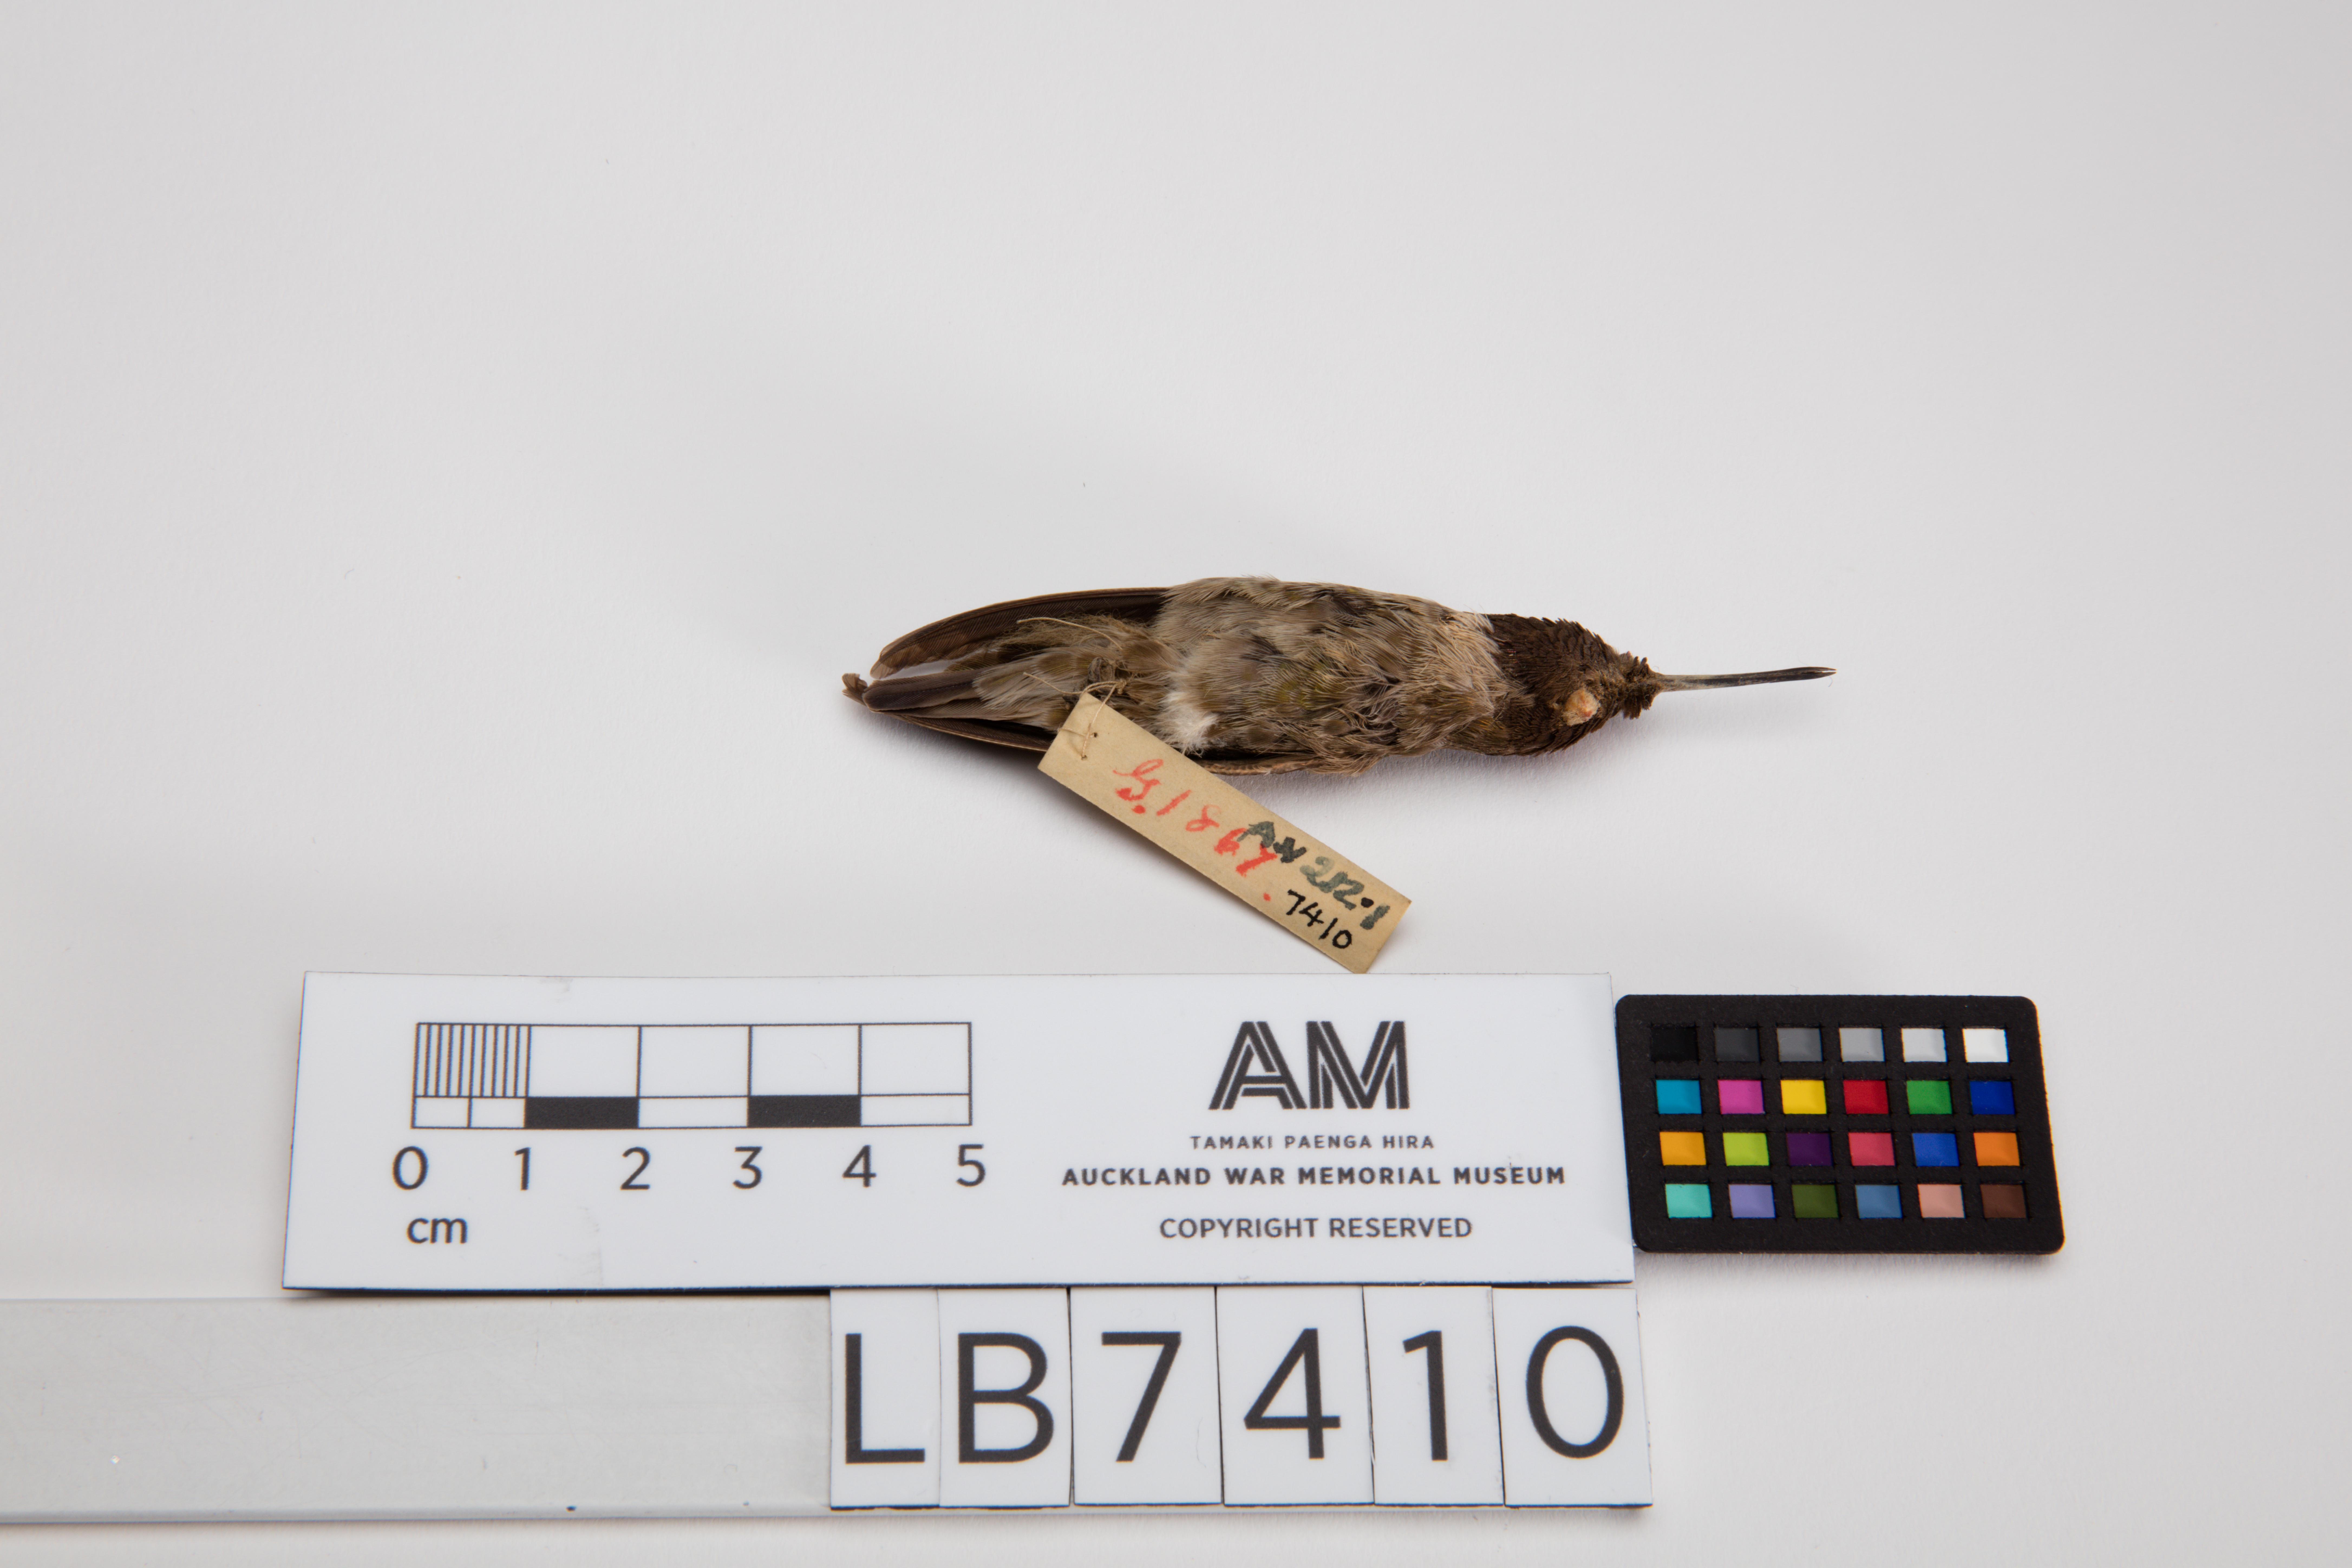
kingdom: Animalia
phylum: Chordata
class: Aves
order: Apodiformes
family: Trochilidae
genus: Calypte
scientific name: Calypte anna
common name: Anna's hummingbird
